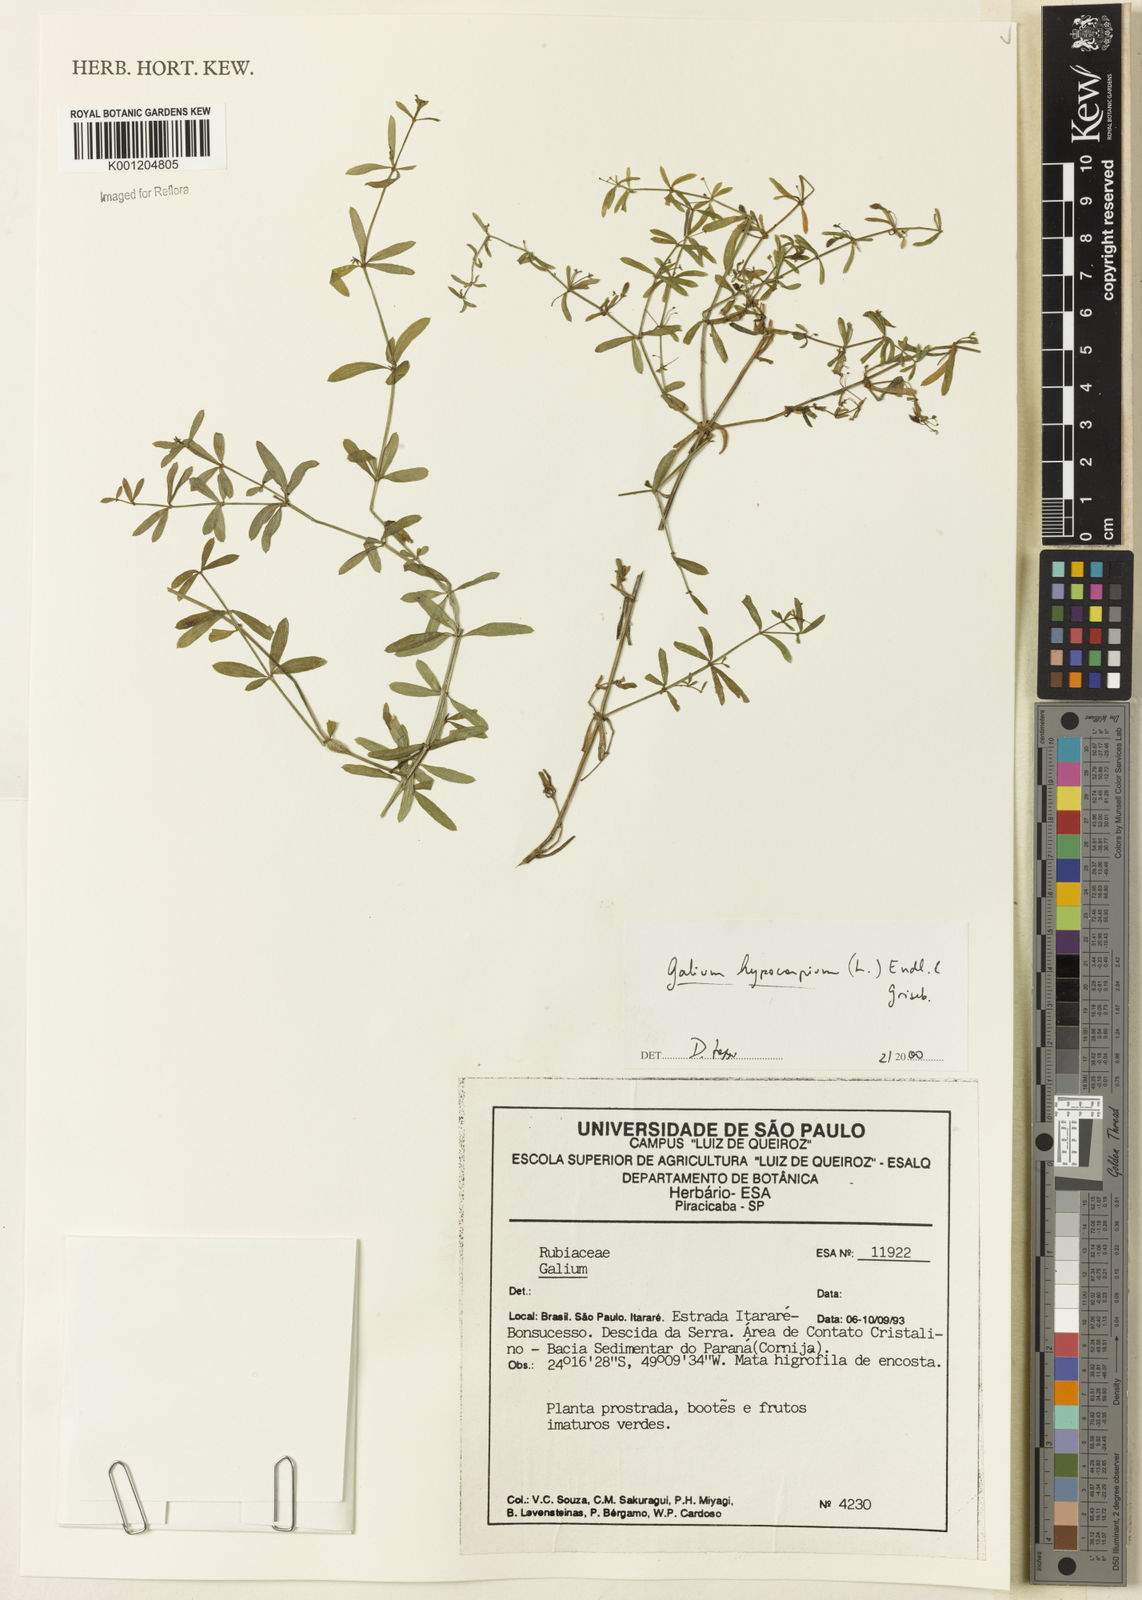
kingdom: Plantae
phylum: Tracheophyta
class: Magnoliopsida
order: Gentianales
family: Rubiaceae
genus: Galium
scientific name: Galium hypocarpium
